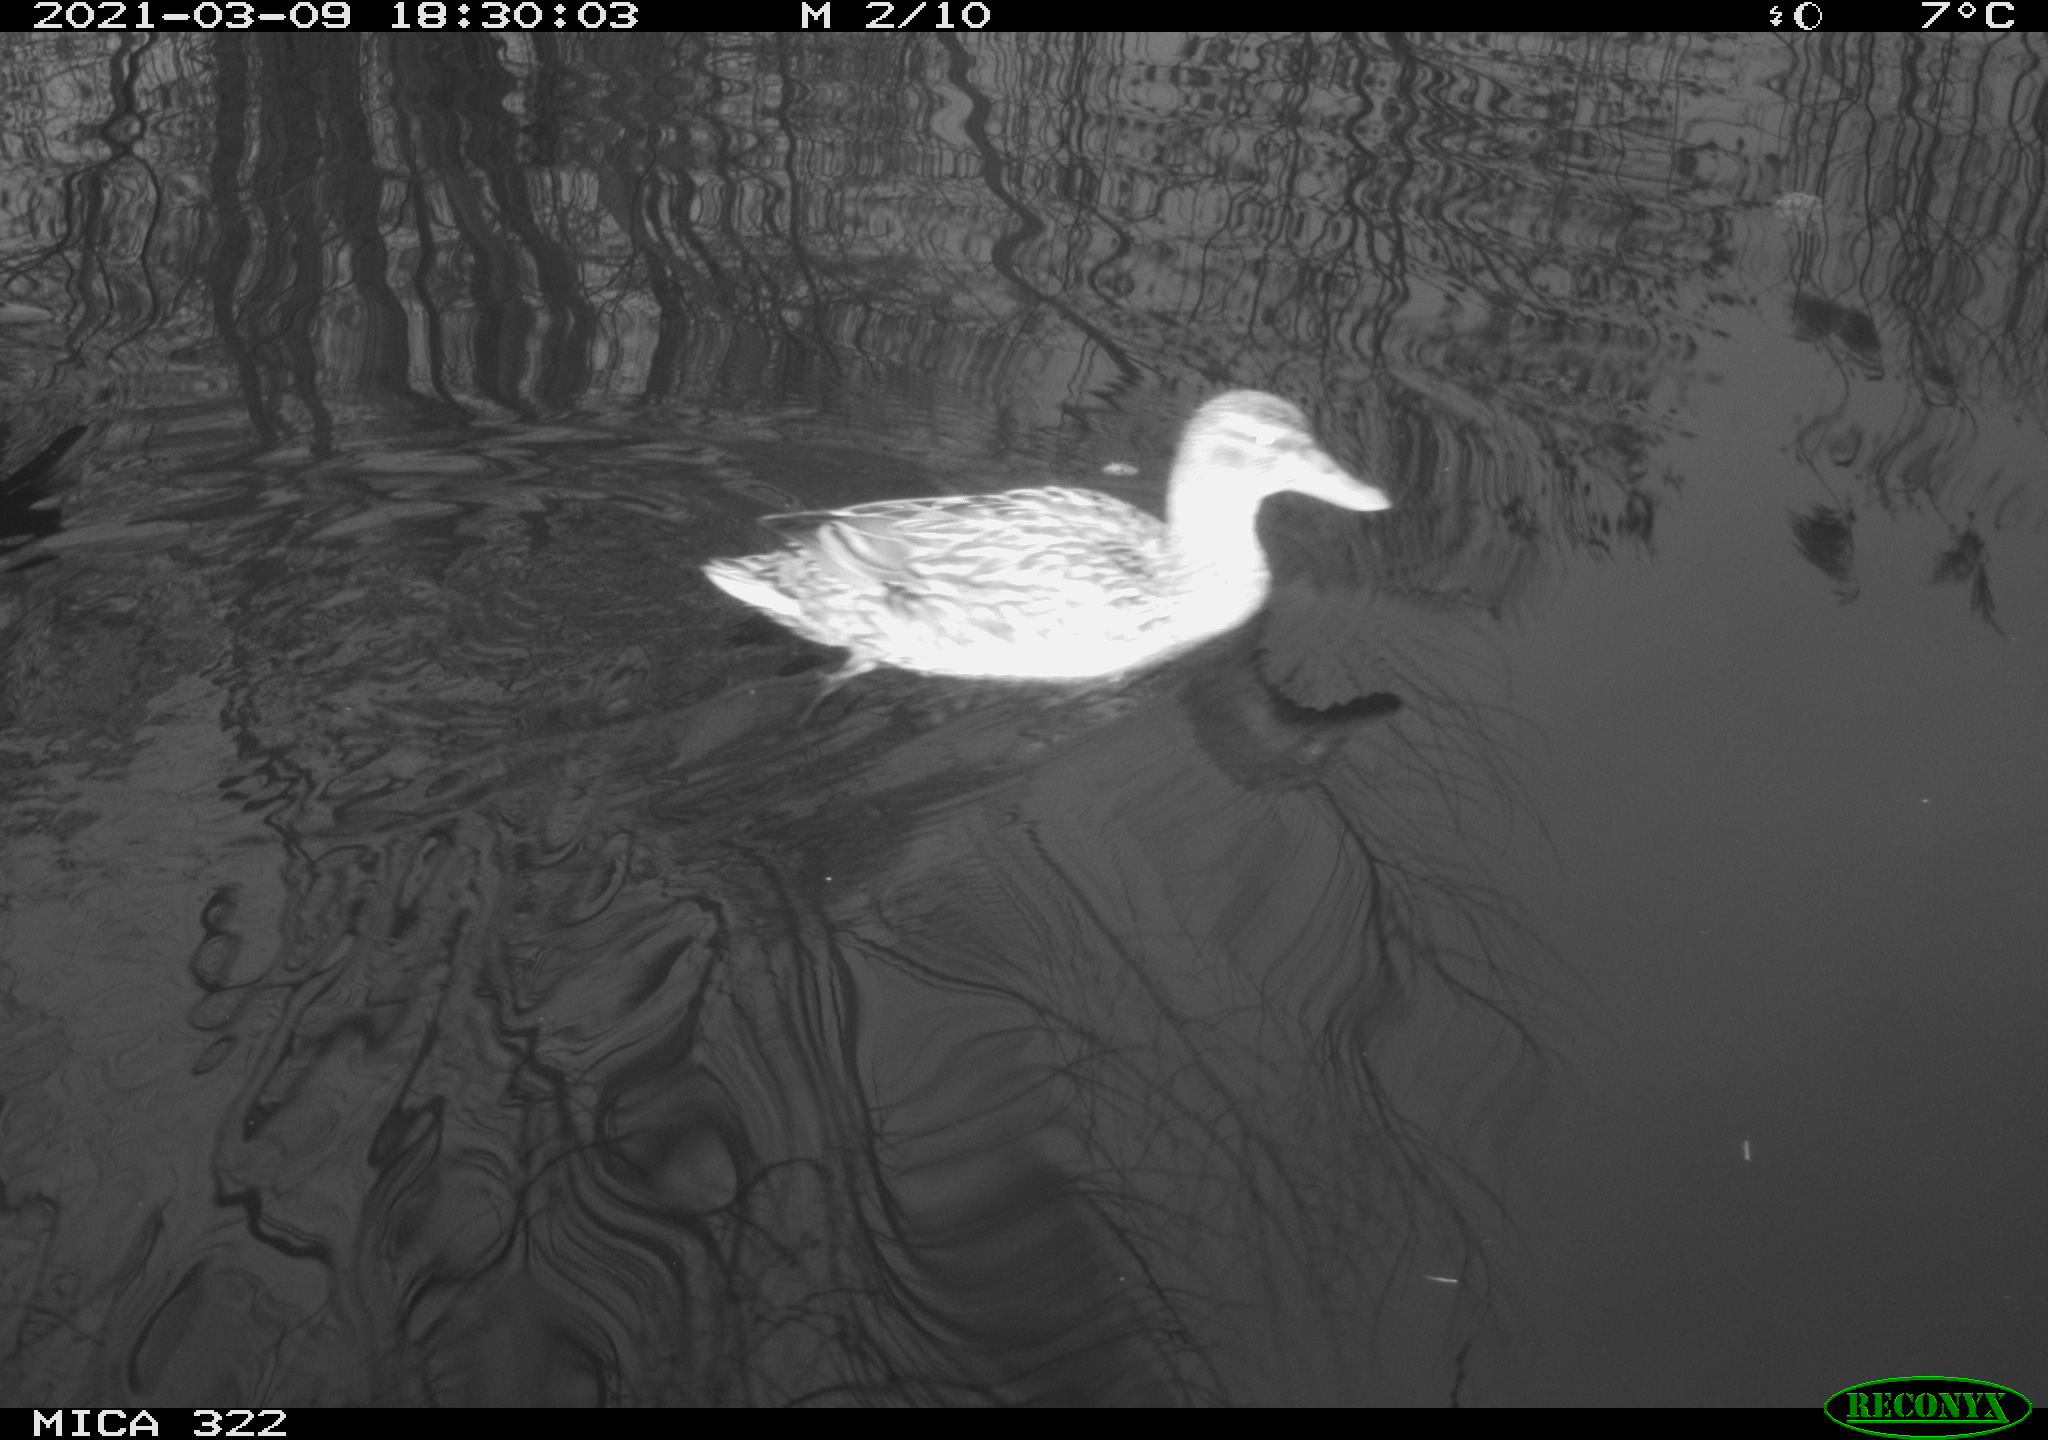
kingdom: Animalia
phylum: Chordata
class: Aves
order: Anseriformes
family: Anatidae
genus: Anas
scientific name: Anas platyrhynchos
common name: Mallard
